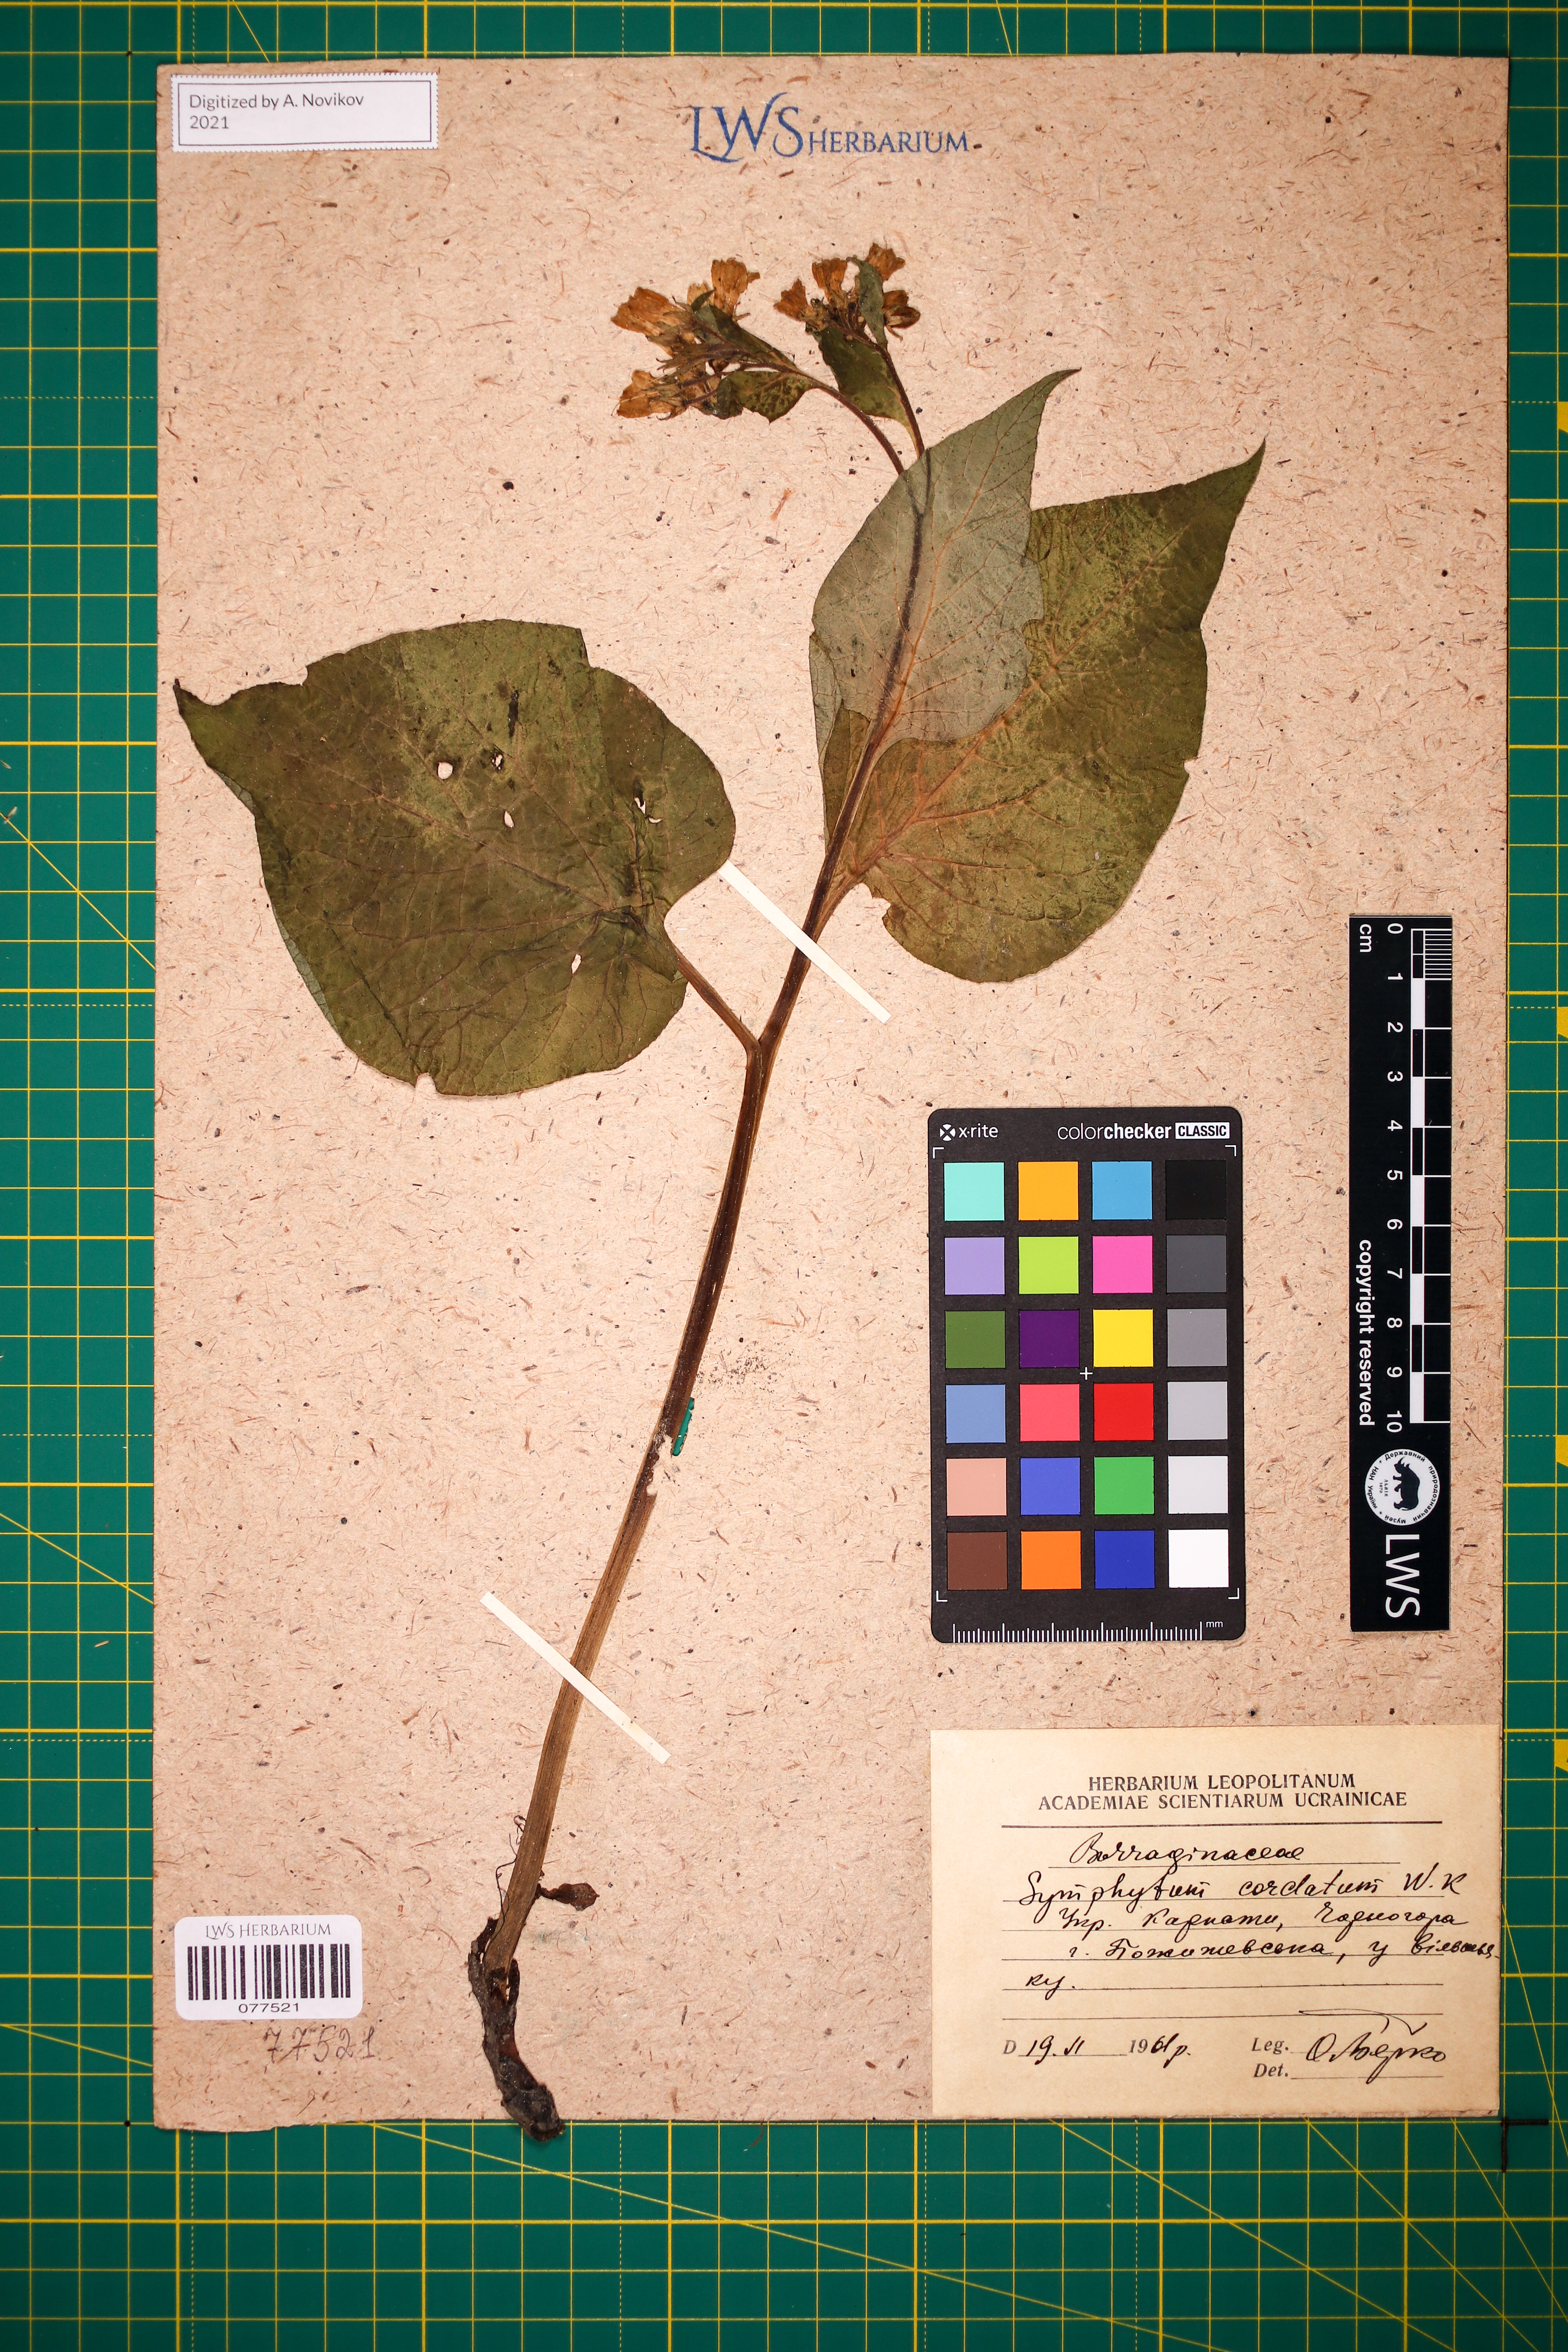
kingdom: Plantae
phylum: Tracheophyta
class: Magnoliopsida
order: Boraginales
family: Boraginaceae
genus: Symphytum
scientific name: Symphytum cordatum
